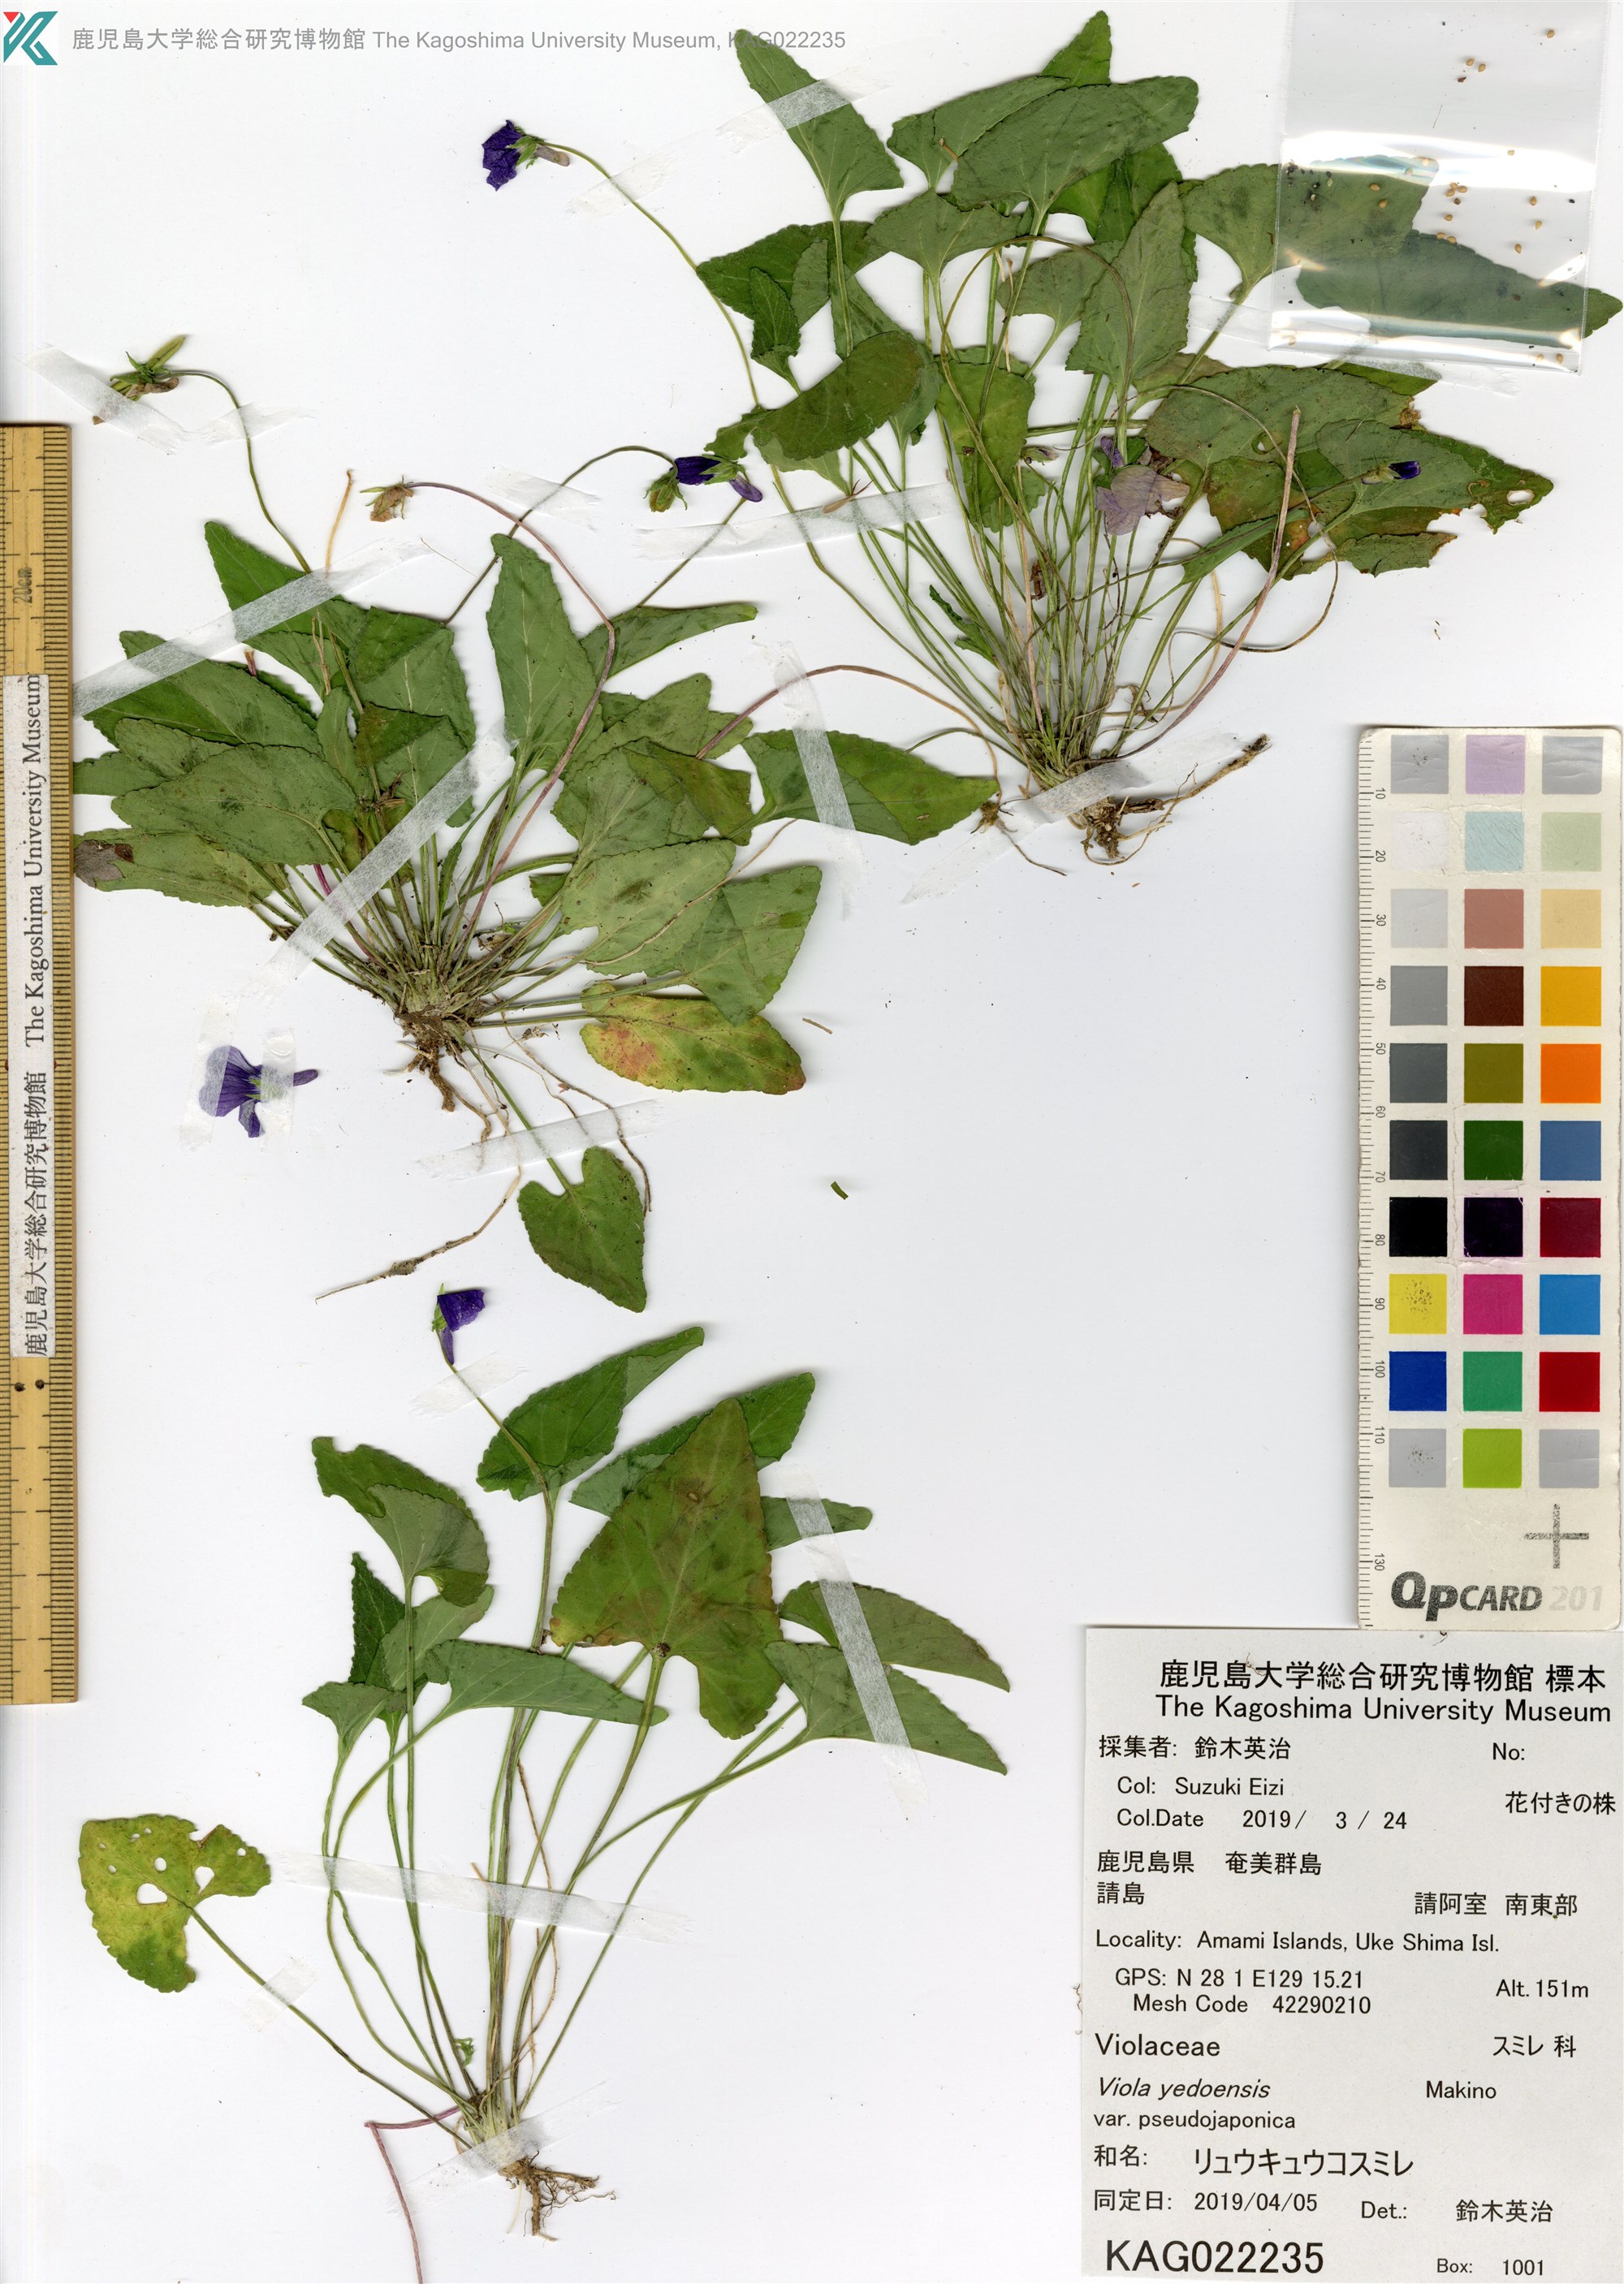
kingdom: Plantae
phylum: Tracheophyta
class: Magnoliopsida
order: Malpighiales
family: Violaceae
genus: Viola
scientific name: Viola philippica
